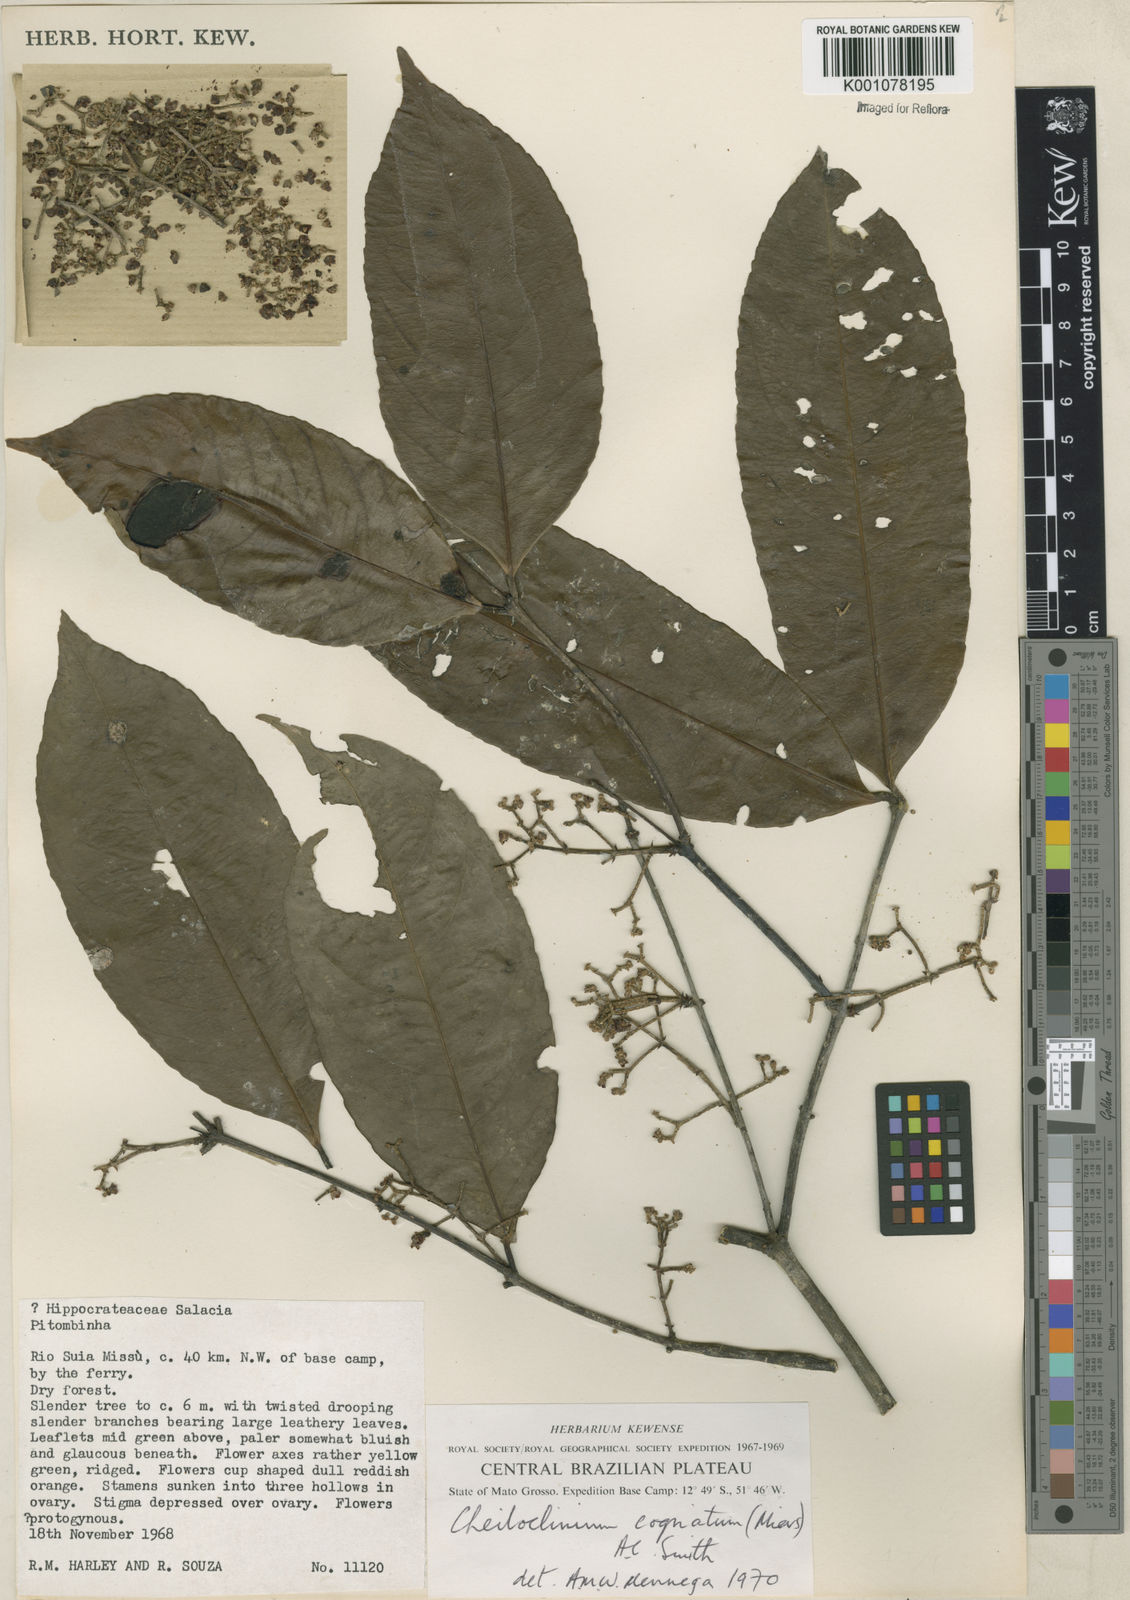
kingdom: Plantae
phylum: Tracheophyta
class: Magnoliopsida
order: Celastrales
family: Celastraceae
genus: Cheiloclinium
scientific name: Cheiloclinium cognatum
